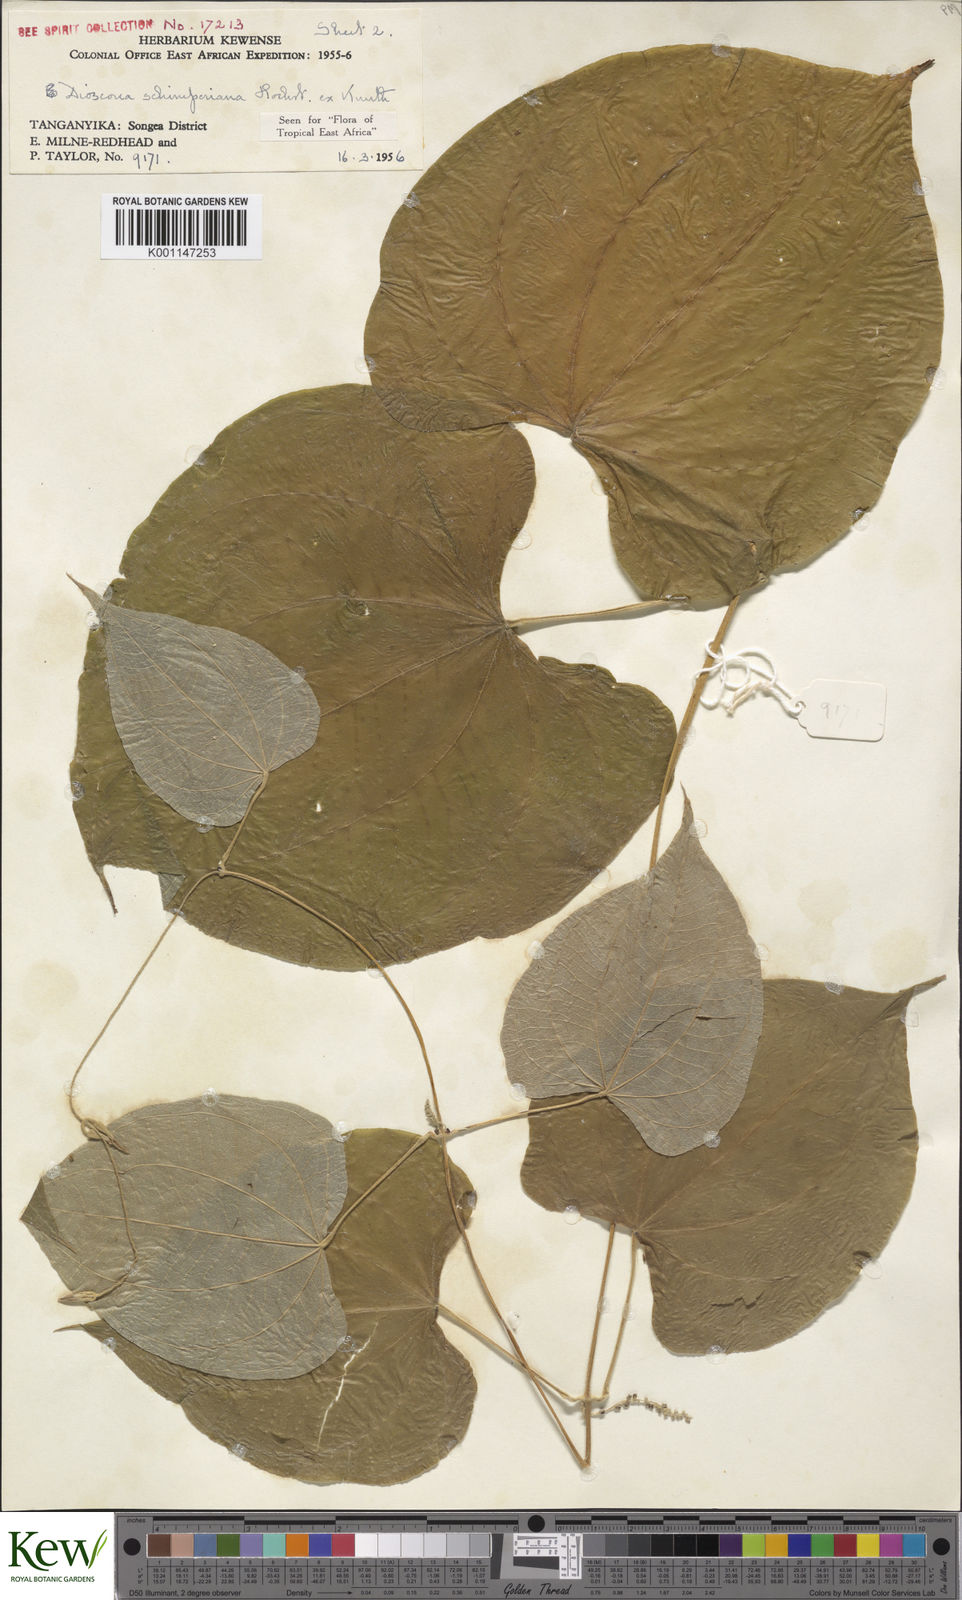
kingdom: Plantae
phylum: Tracheophyta
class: Liliopsida
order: Dioscoreales
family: Dioscoreaceae
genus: Dioscorea
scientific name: Dioscorea schimperiana
